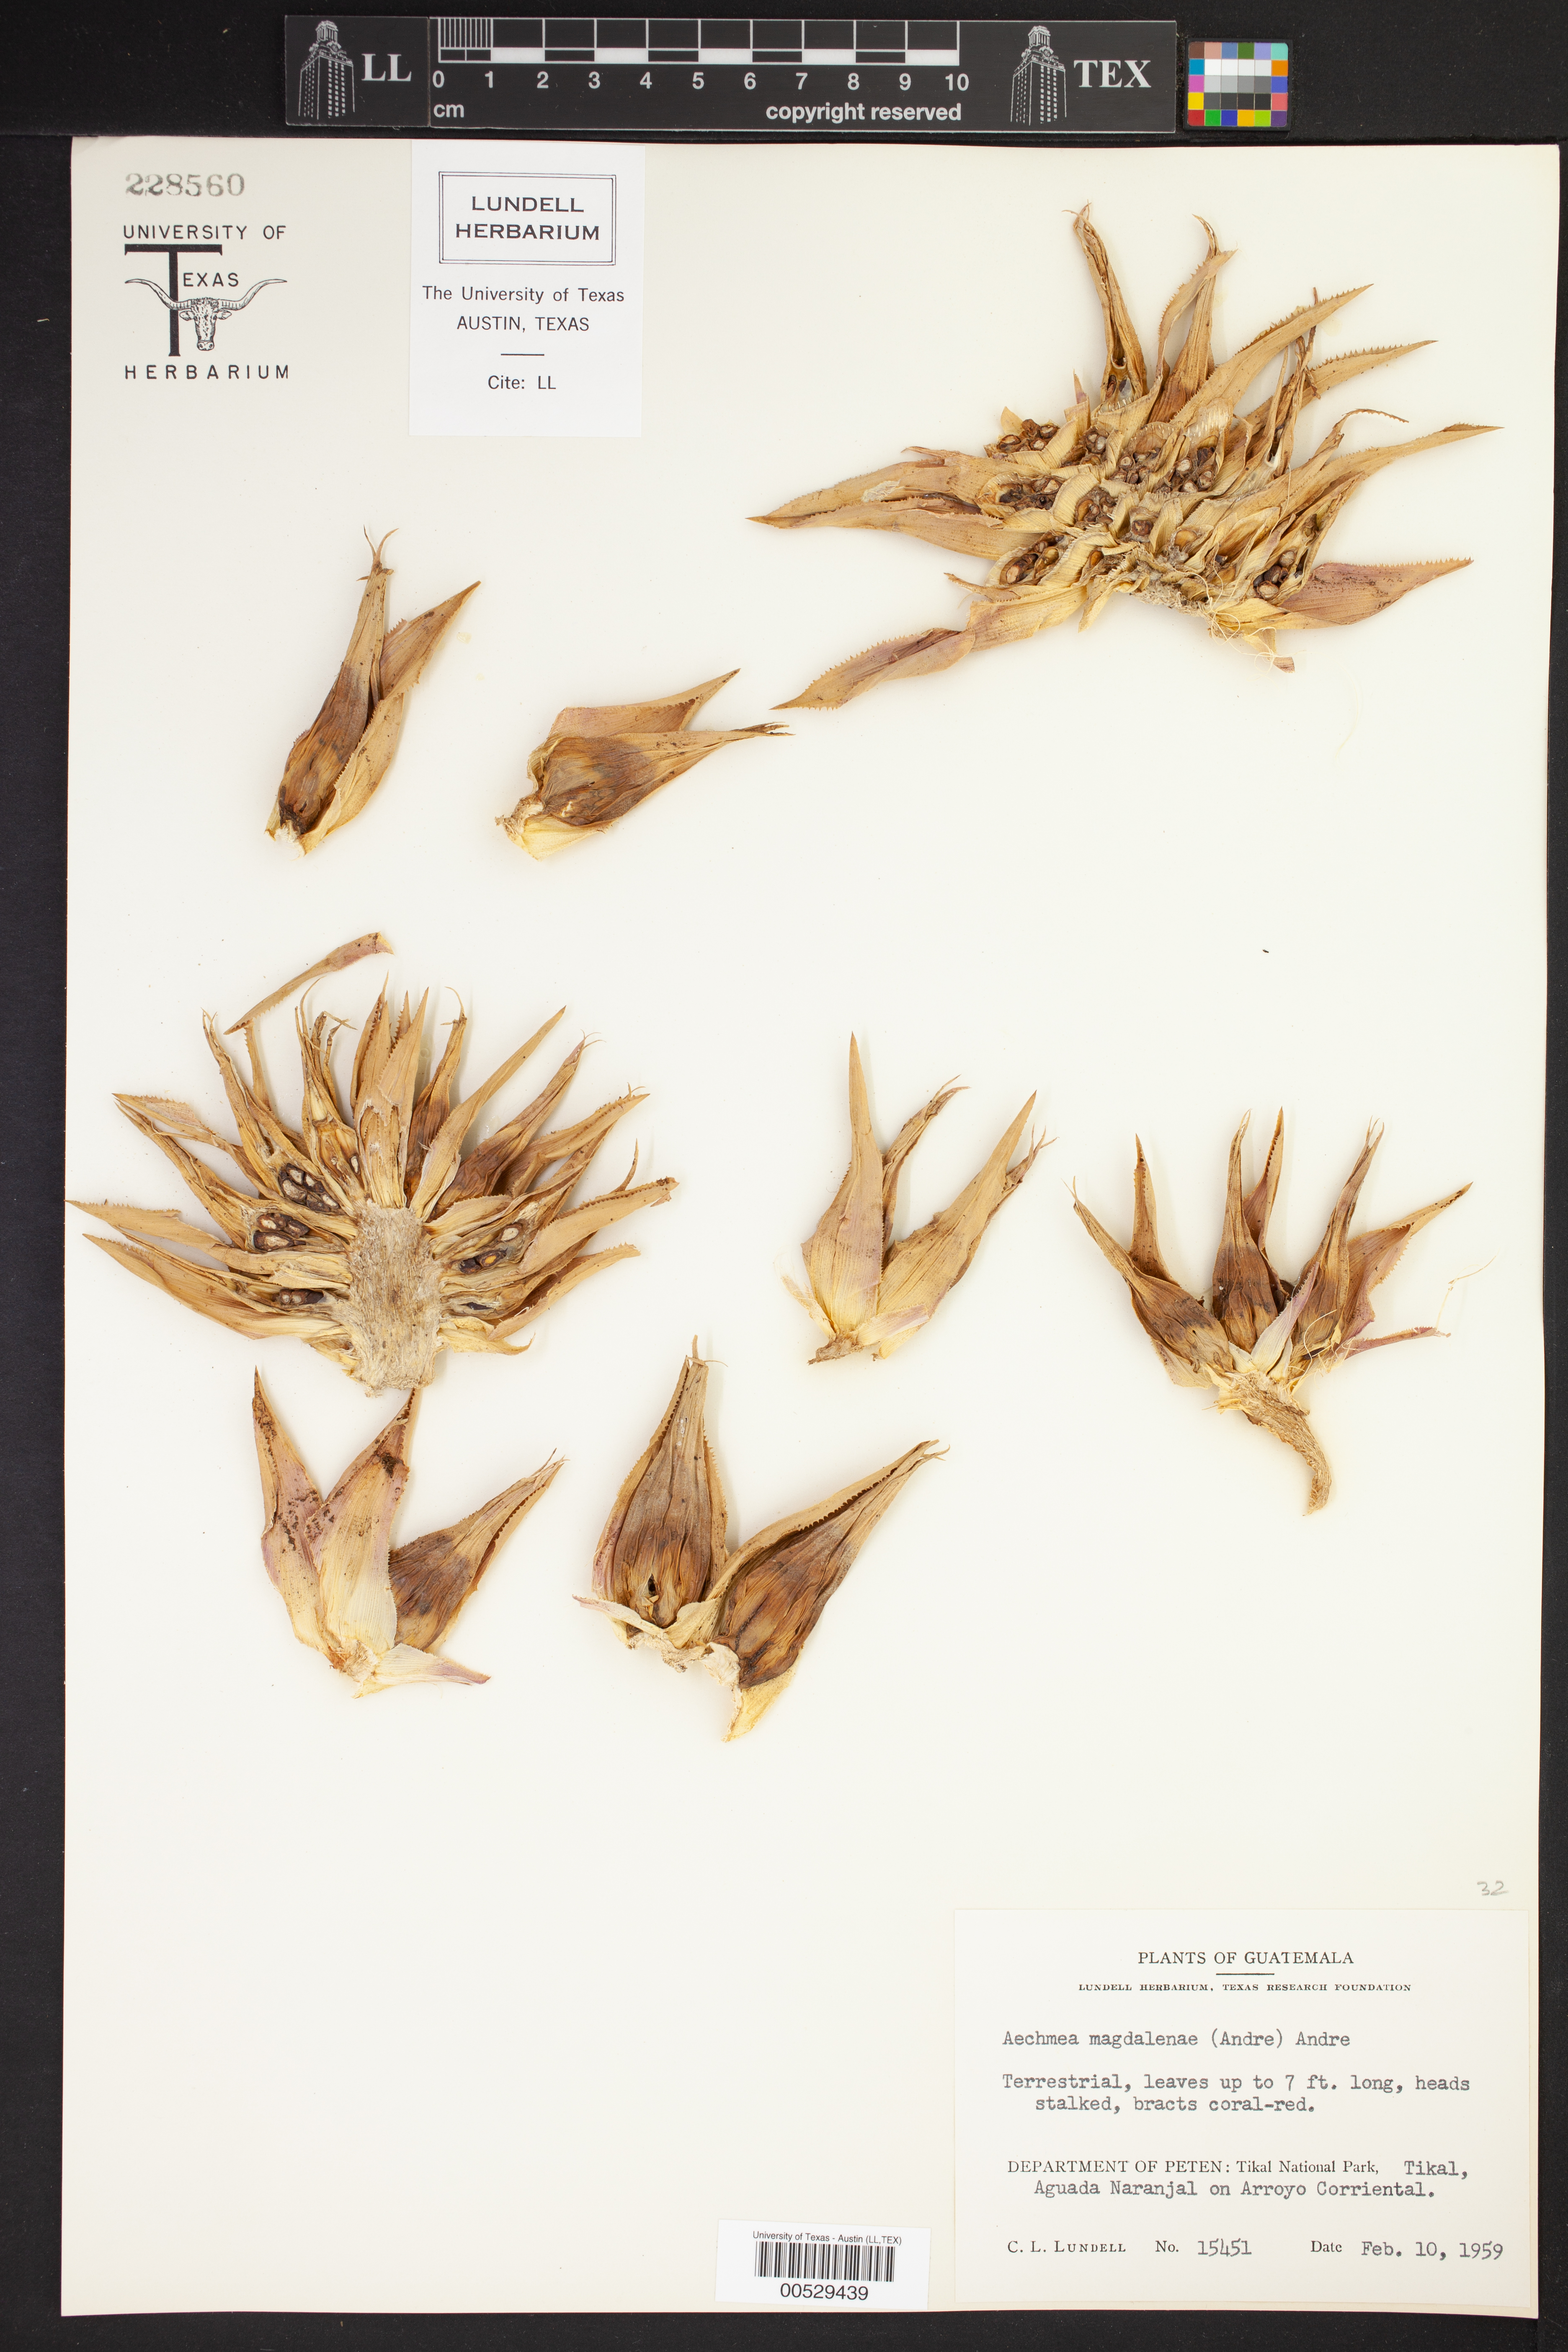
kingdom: Plantae
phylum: Tracheophyta
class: Liliopsida
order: Poales
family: Bromeliaceae
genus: Aechmea
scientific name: Aechmea magdalenae
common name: Arghan
